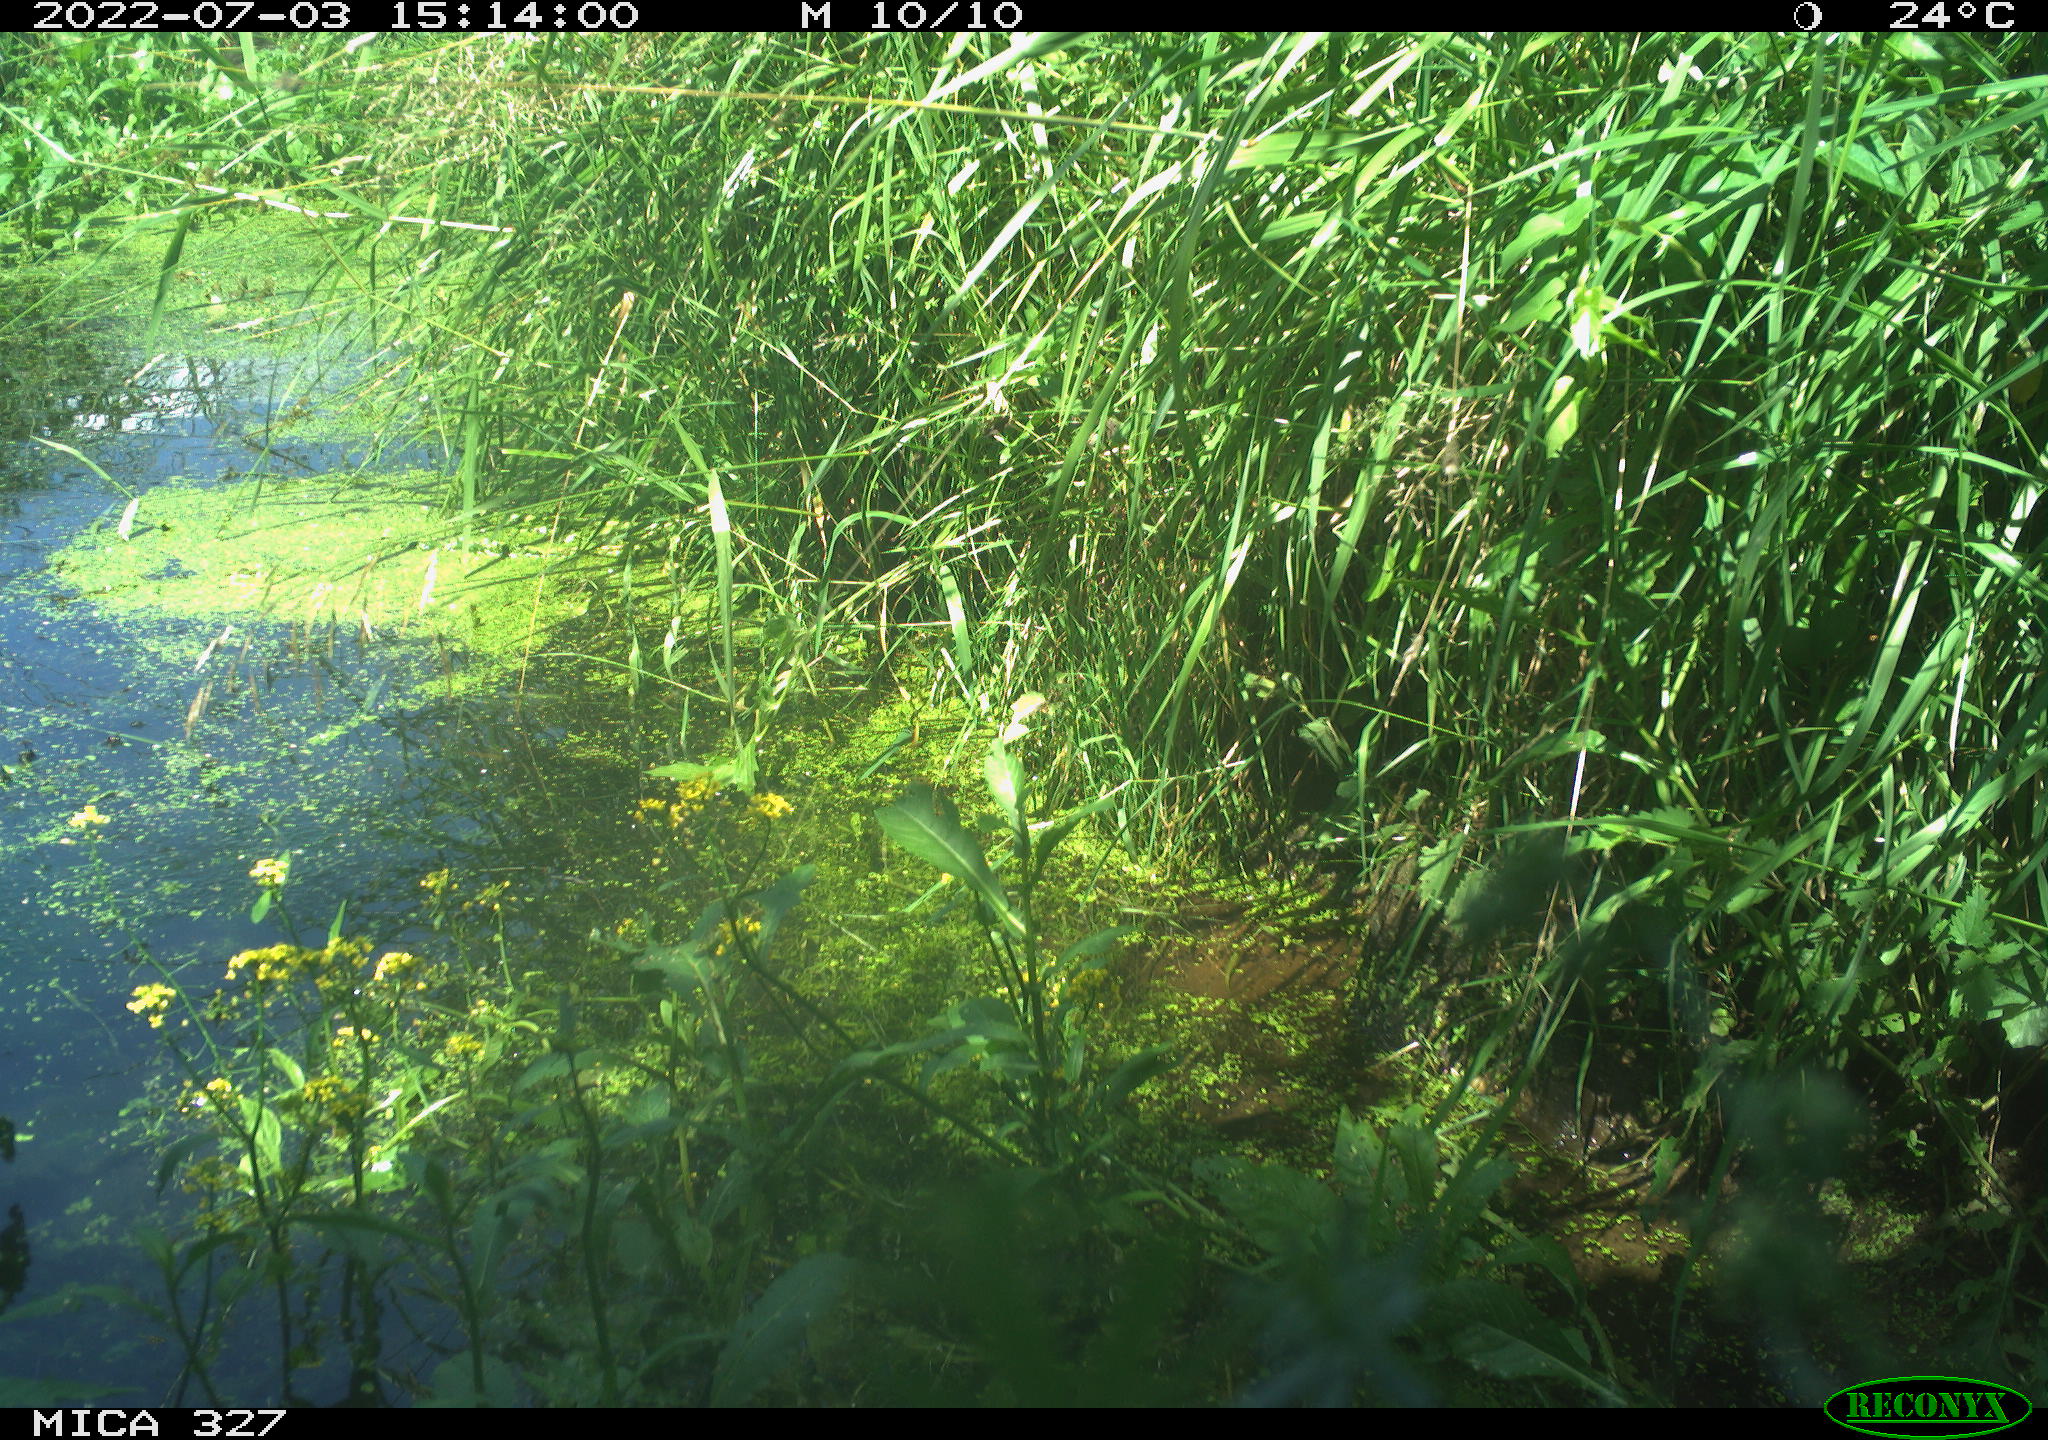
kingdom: Animalia
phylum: Chordata
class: Aves
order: Gruiformes
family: Rallidae
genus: Gallinula
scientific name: Gallinula chloropus
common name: Common moorhen
